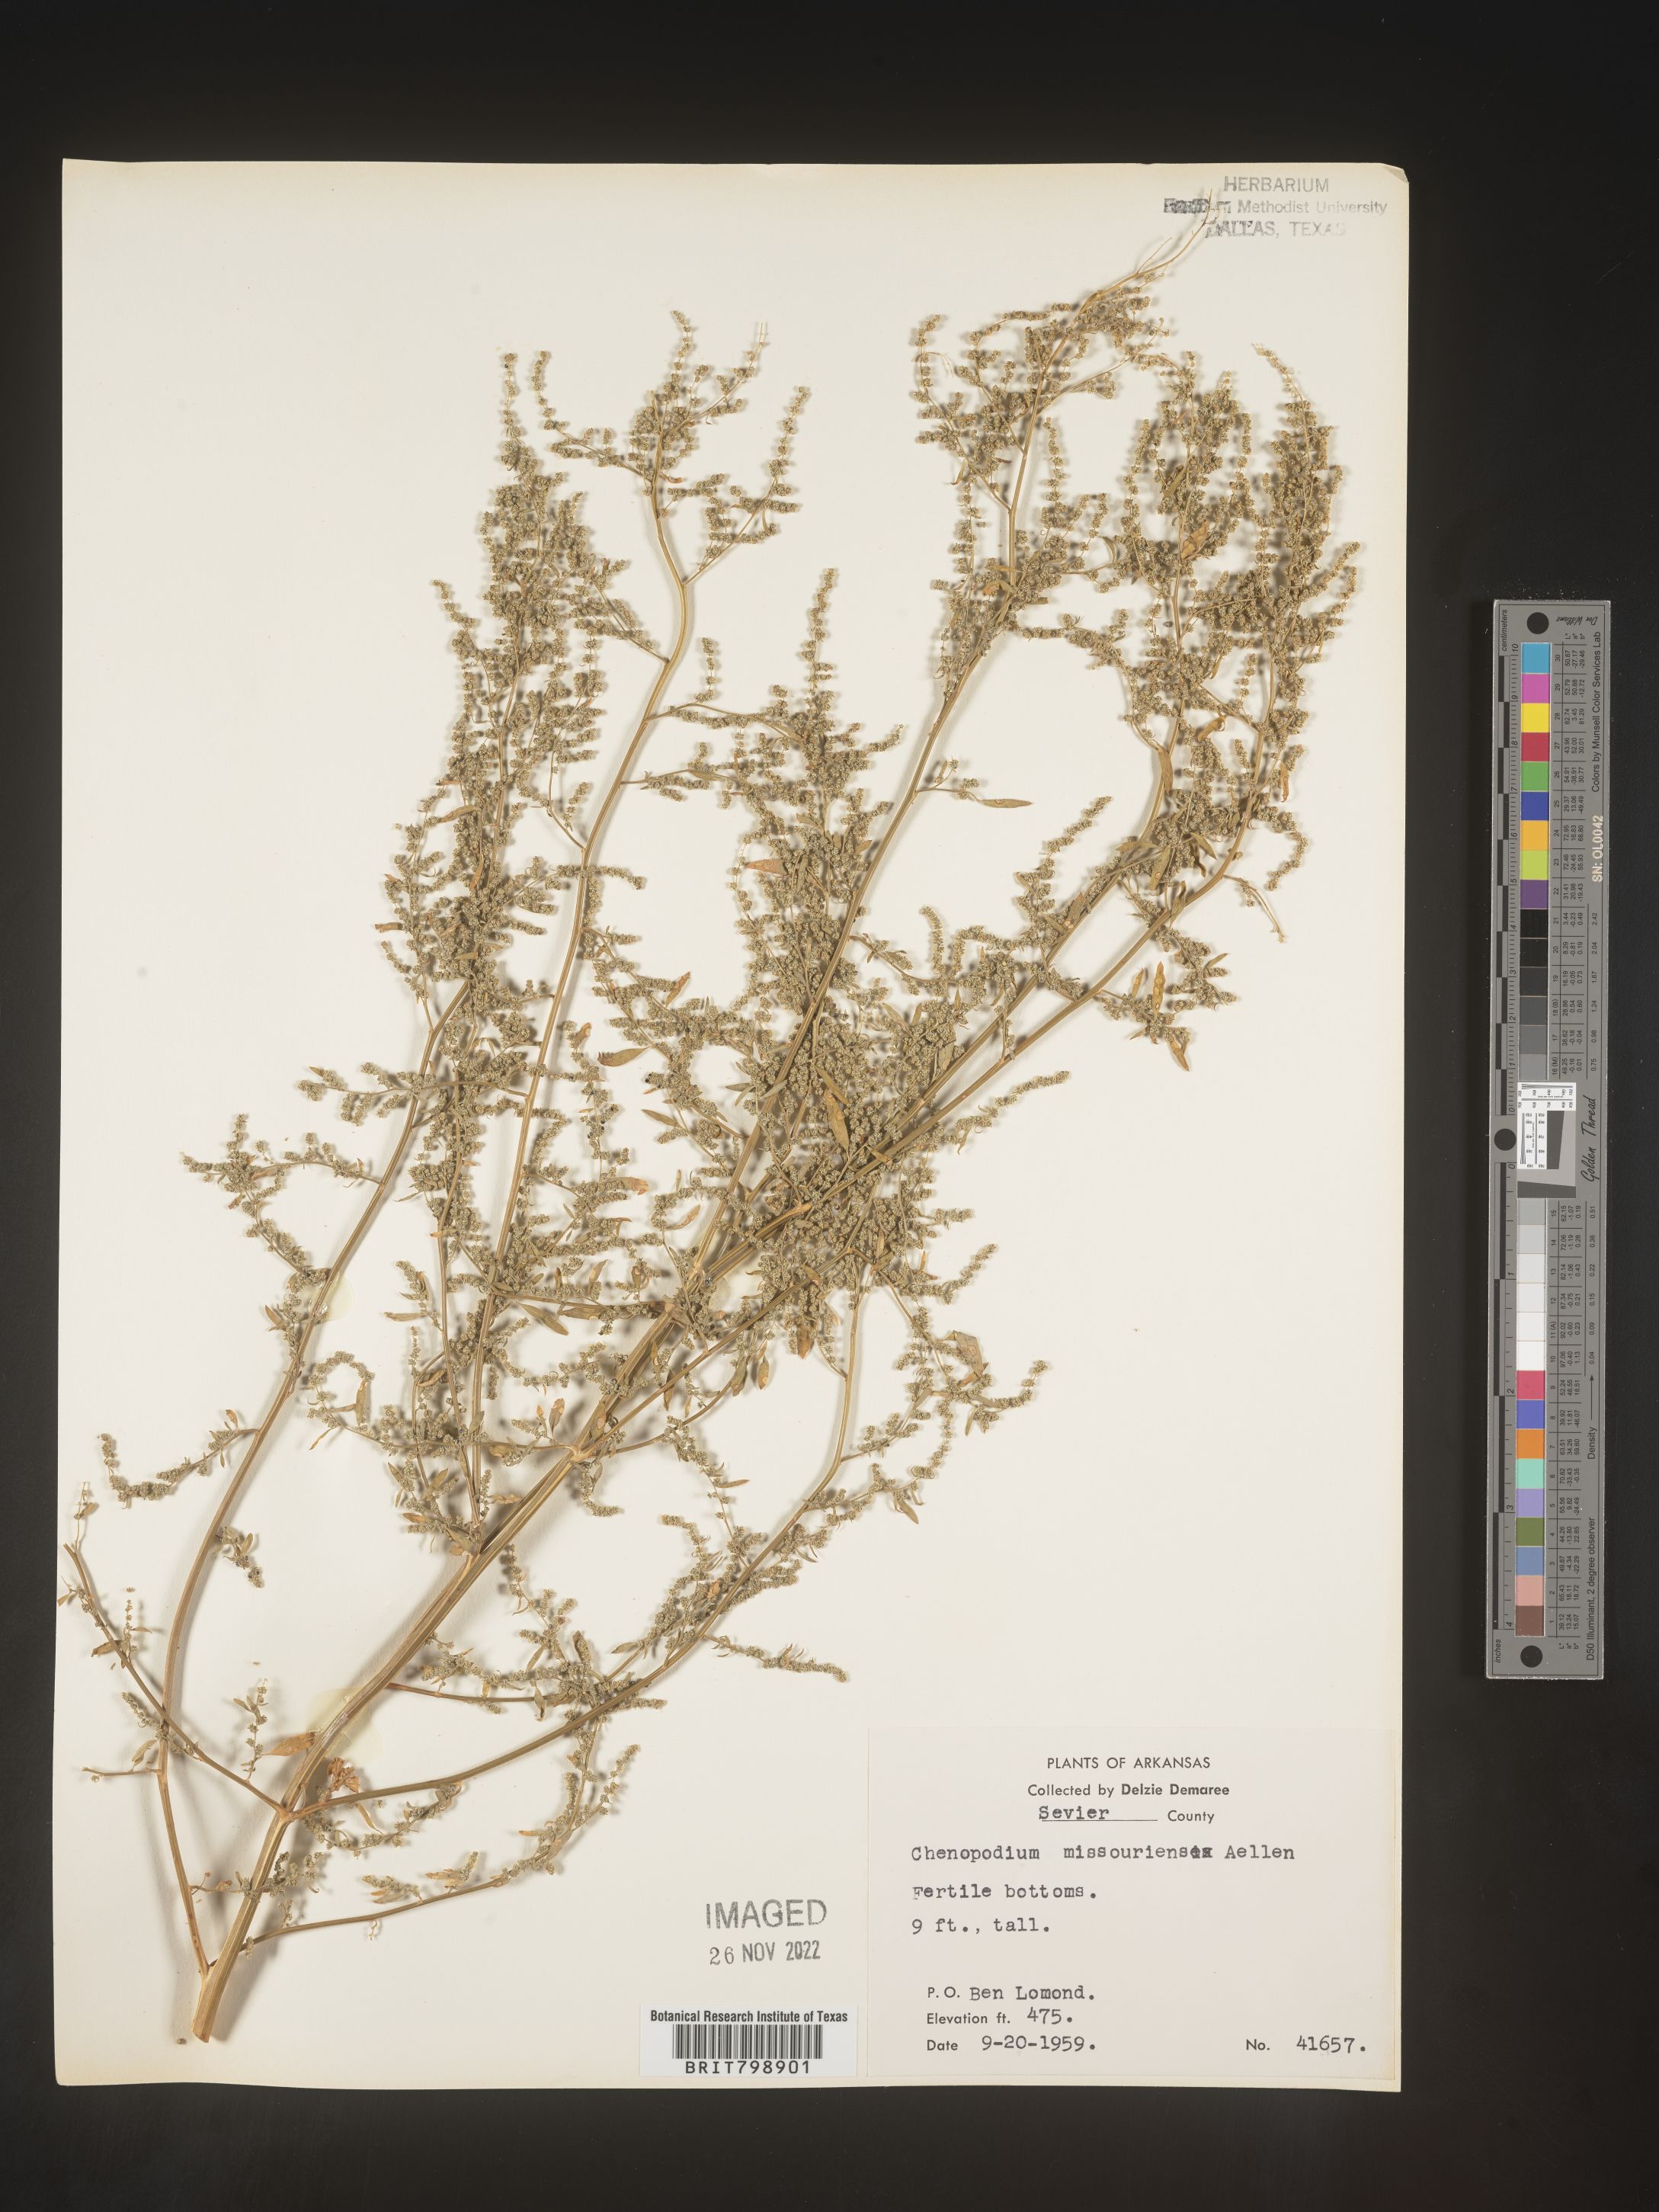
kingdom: Plantae
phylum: Tracheophyta
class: Magnoliopsida
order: Caryophyllales
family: Amaranthaceae
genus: Chenopodium
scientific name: Chenopodium album
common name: Fat-hen
